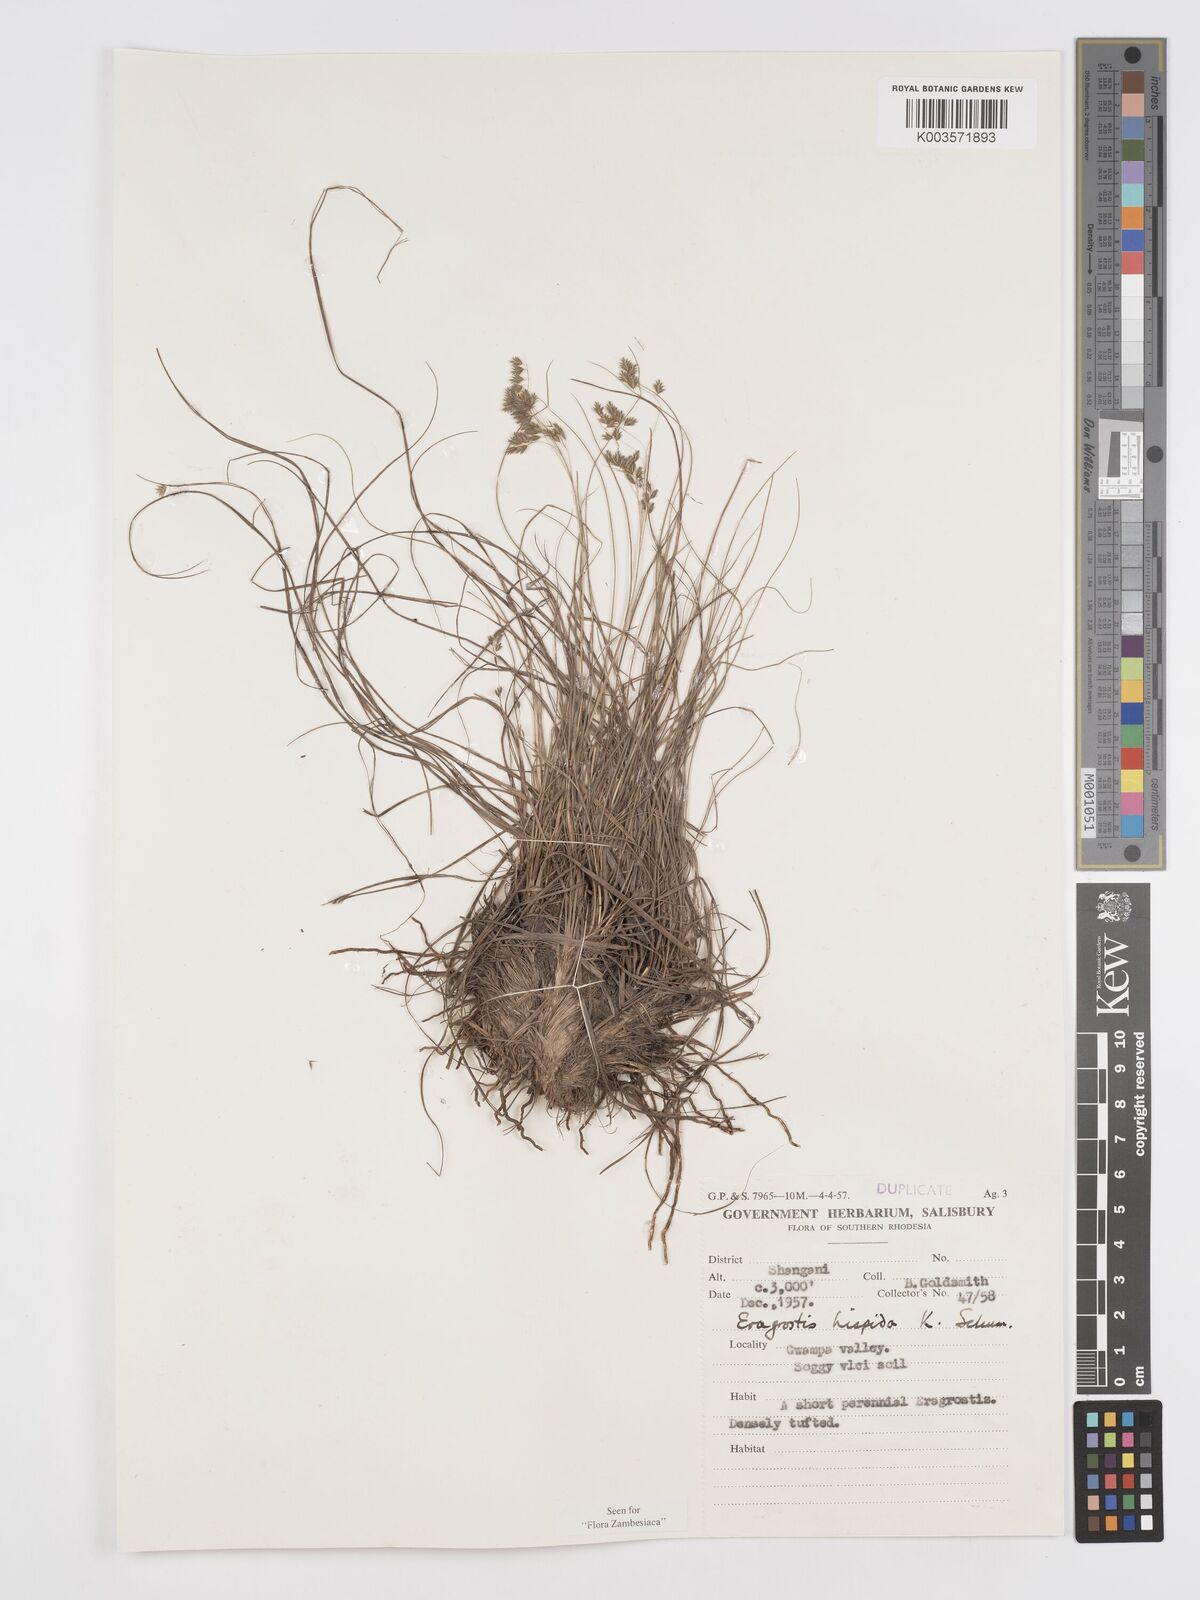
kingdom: Plantae
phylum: Tracheophyta
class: Liliopsida
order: Poales
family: Poaceae
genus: Eragrostis
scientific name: Eragrostis hispida
